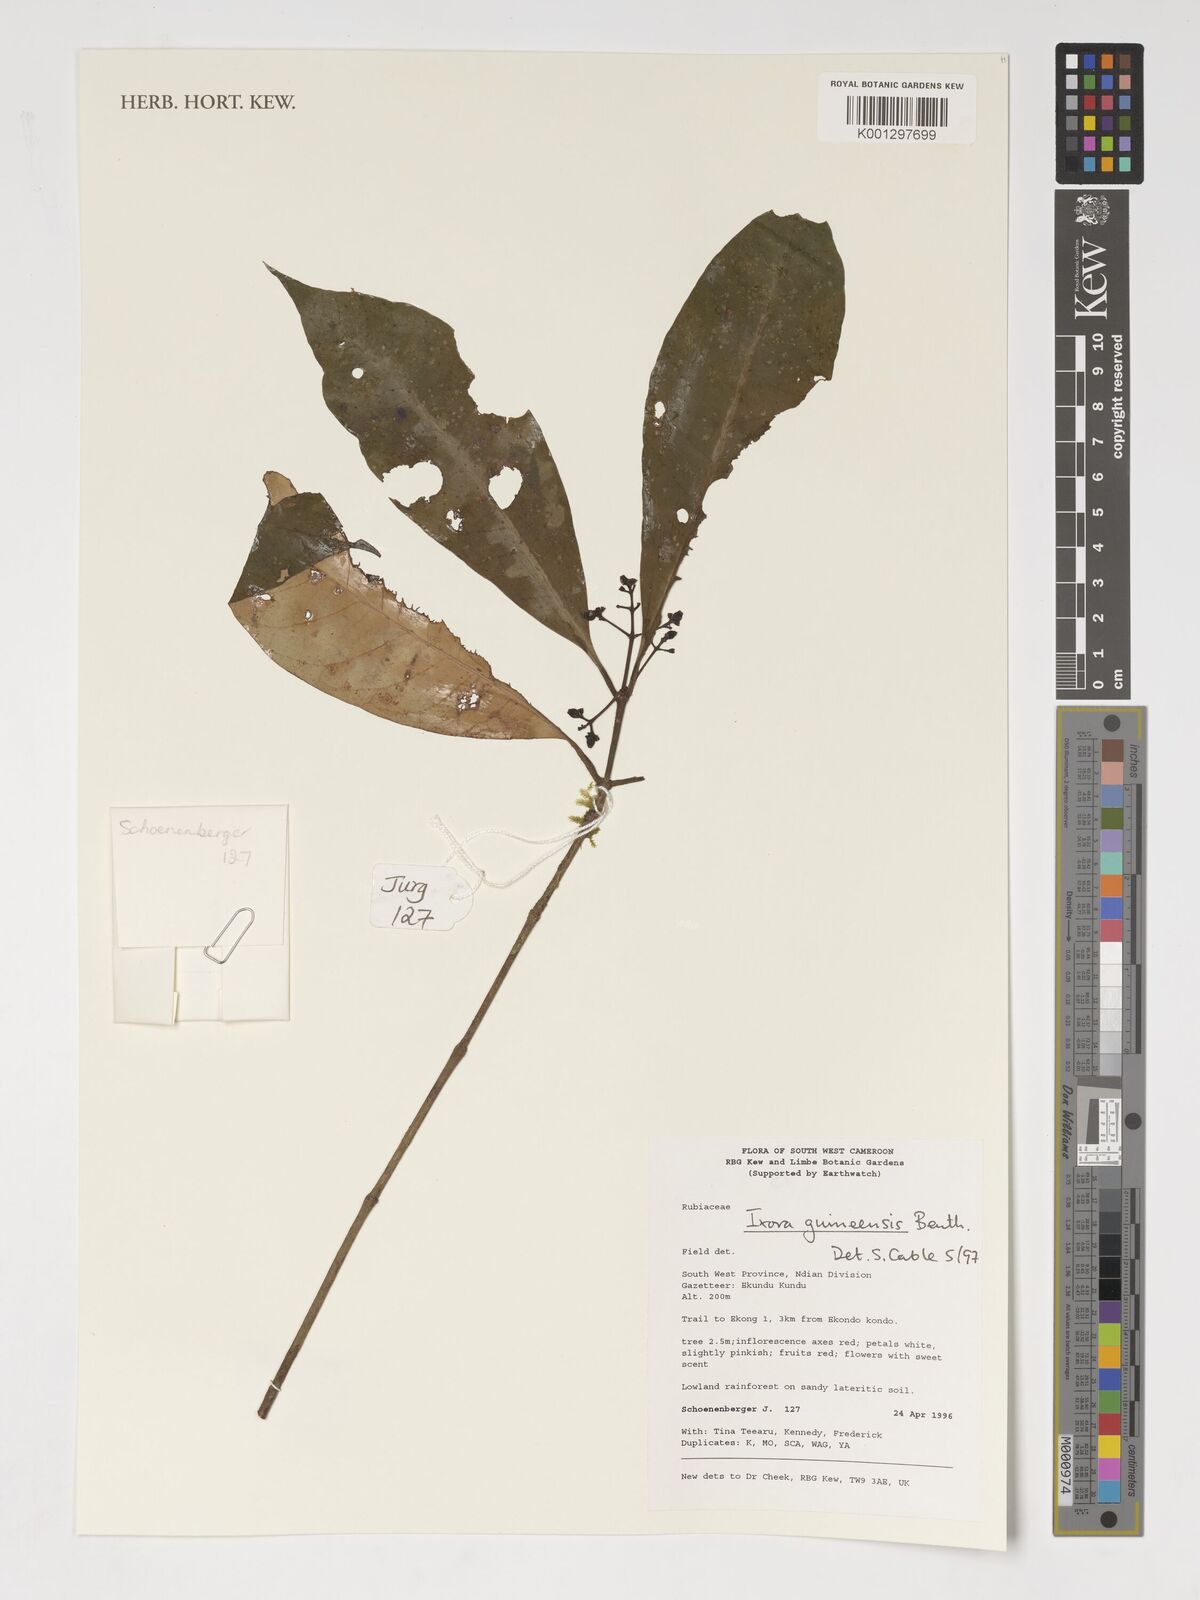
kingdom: Plantae
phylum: Tracheophyta
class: Magnoliopsida
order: Gentianales
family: Rubiaceae
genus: Ixora
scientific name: Ixora guineensis
